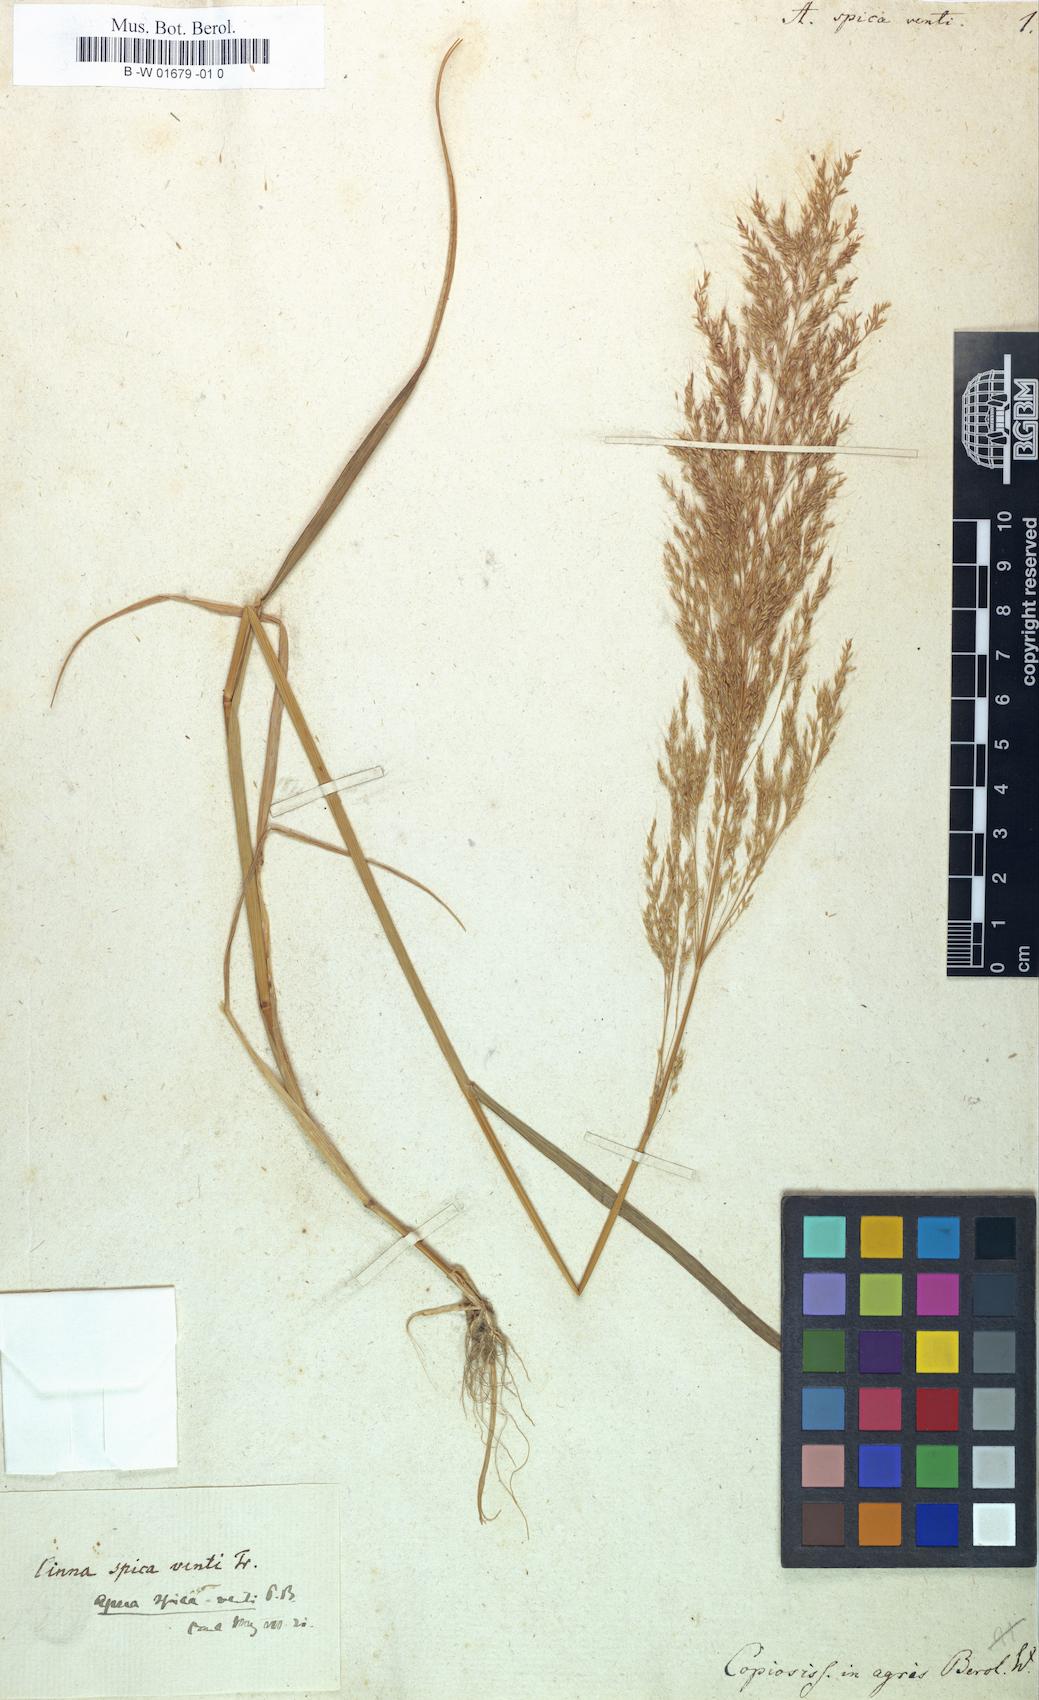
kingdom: Plantae
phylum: Tracheophyta
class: Liliopsida
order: Poales
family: Poaceae
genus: Apera
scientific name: Apera spica-venti
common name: Loose silky-bent
